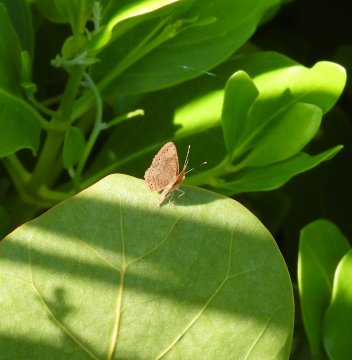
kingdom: Animalia
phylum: Arthropoda
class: Insecta
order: Lepidoptera
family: Riodinidae
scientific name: Riodinidae
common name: Metalmarks
